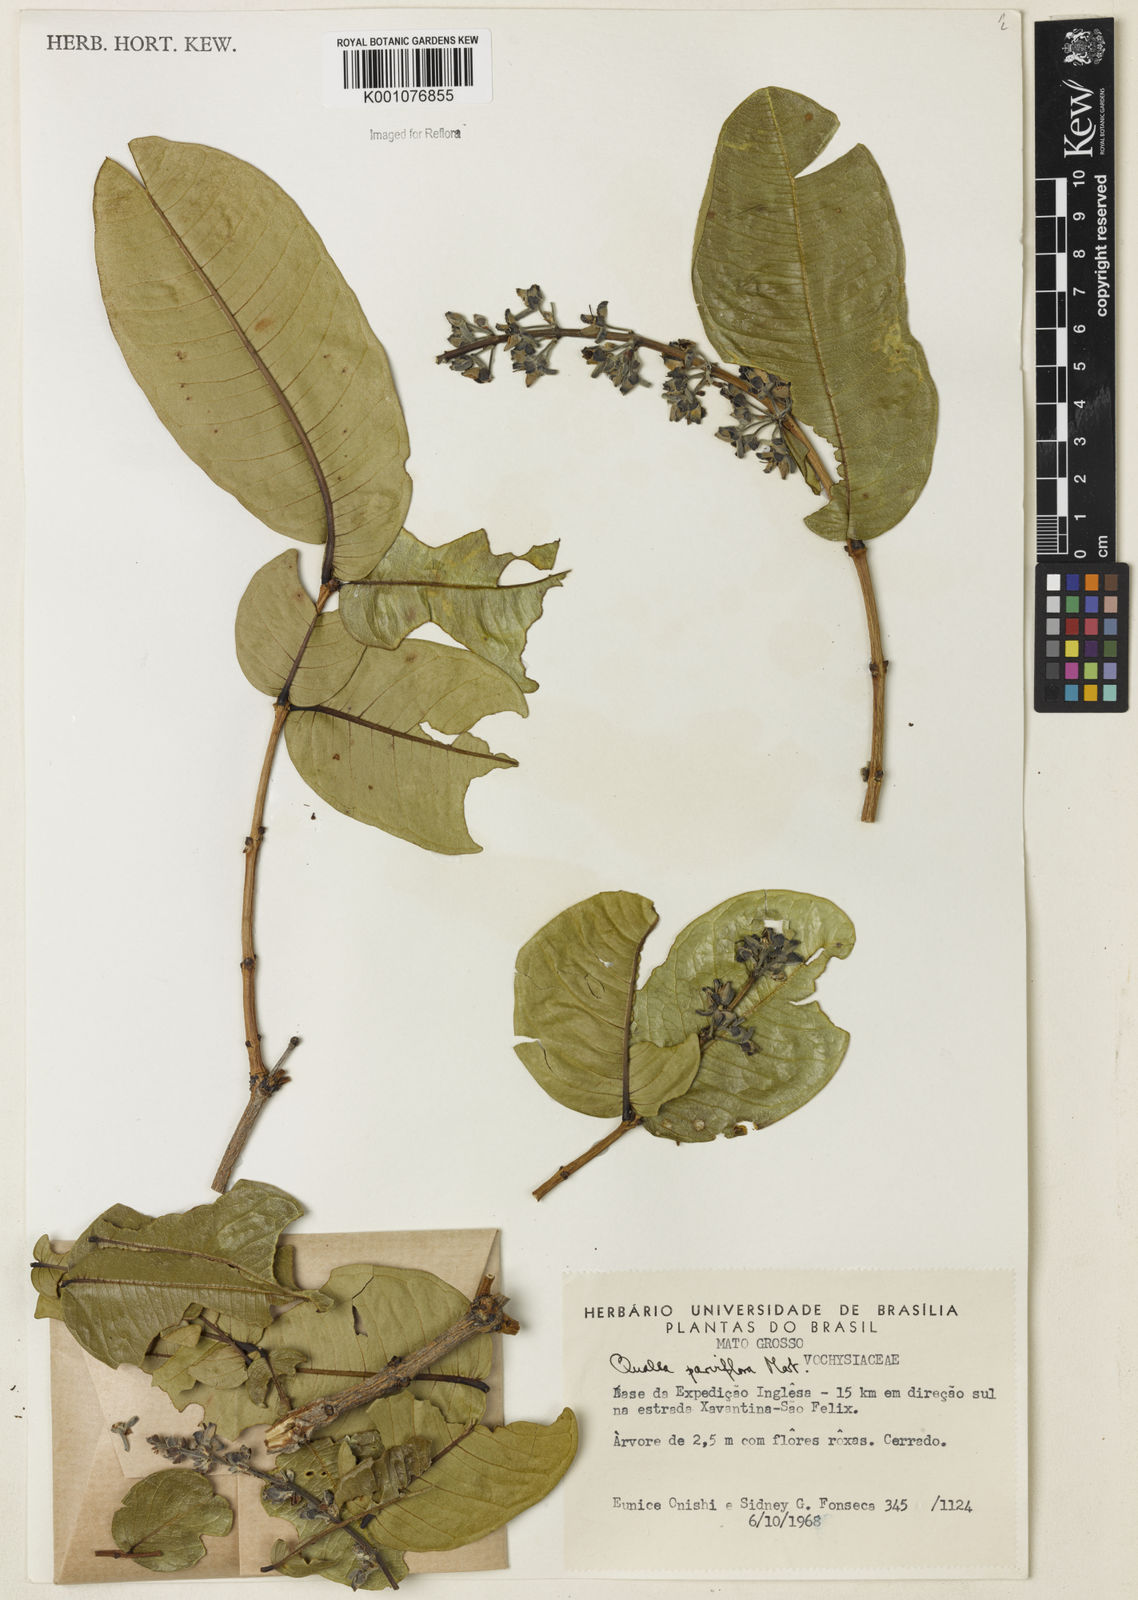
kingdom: Plantae
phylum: Tracheophyta
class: Magnoliopsida
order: Myrtales
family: Vochysiaceae
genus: Qualea
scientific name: Qualea parviflora
